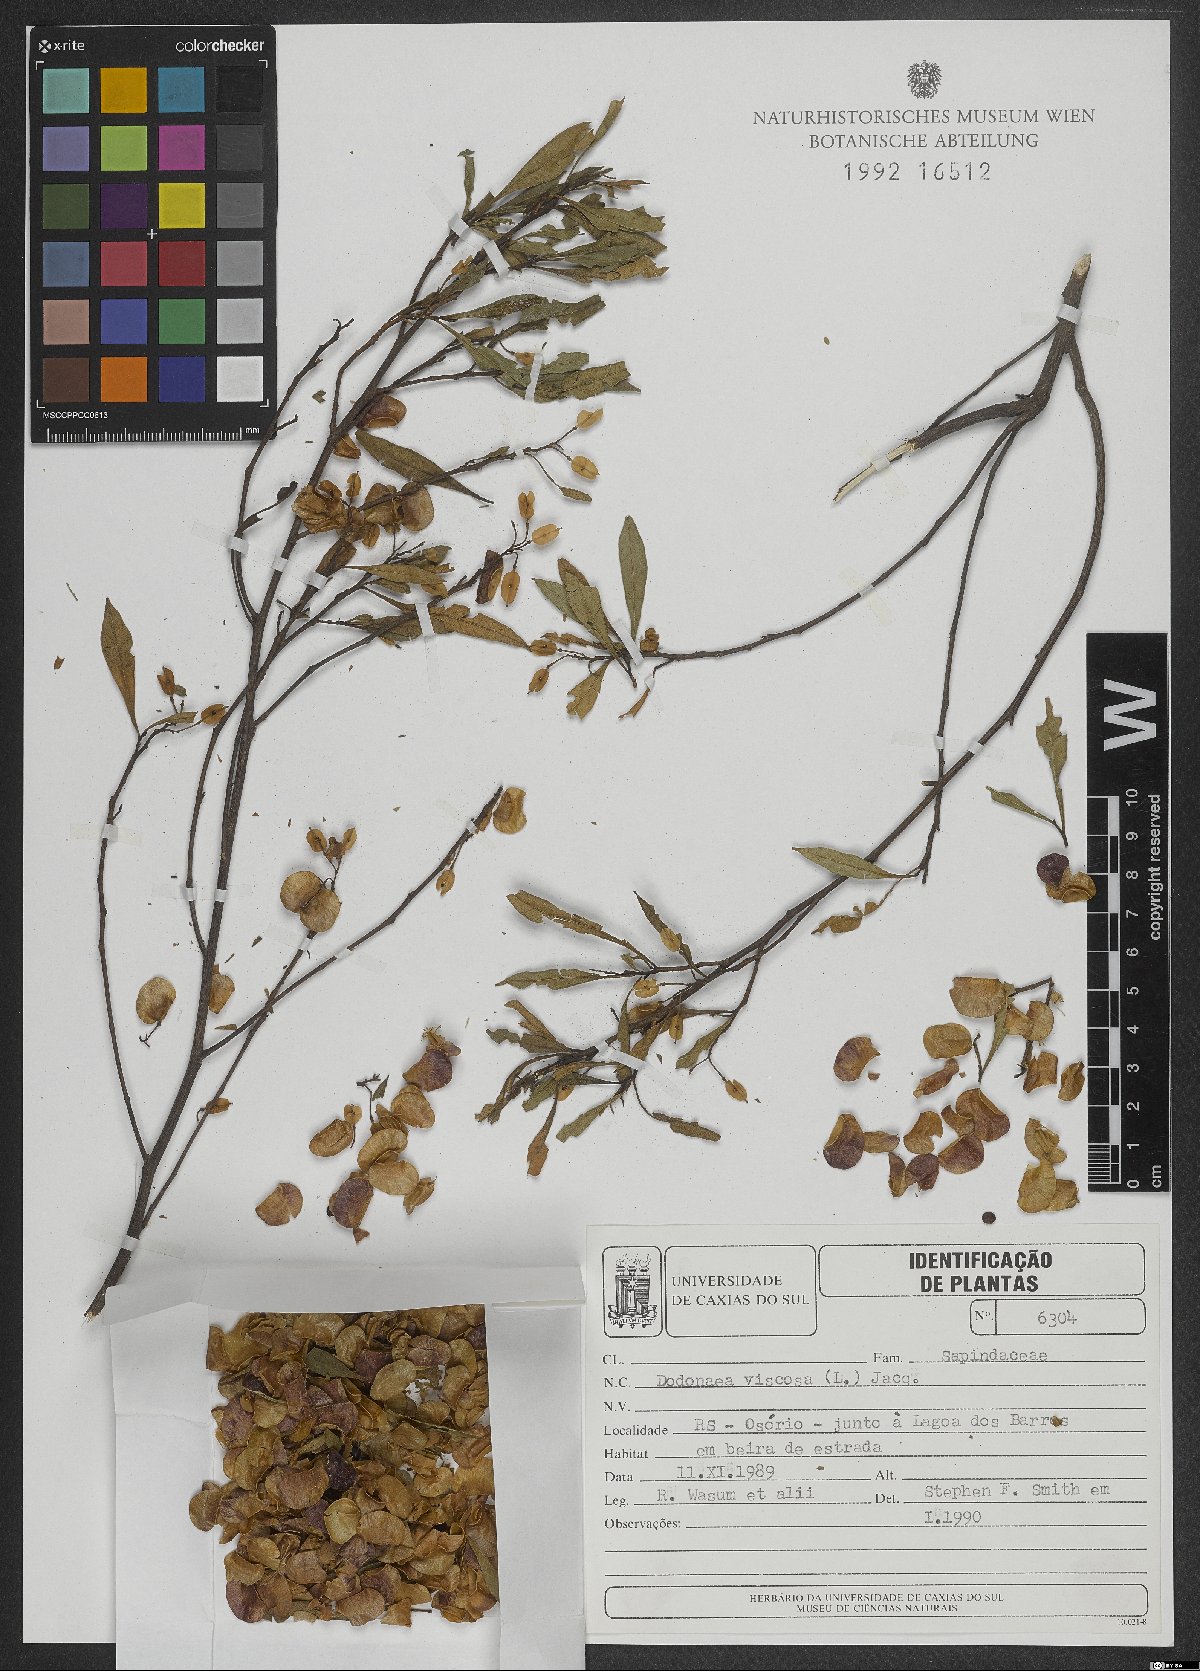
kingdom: Plantae
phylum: Tracheophyta
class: Magnoliopsida
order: Sapindales
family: Sapindaceae
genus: Dodonaea
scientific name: Dodonaea viscosa
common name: Hopbush
